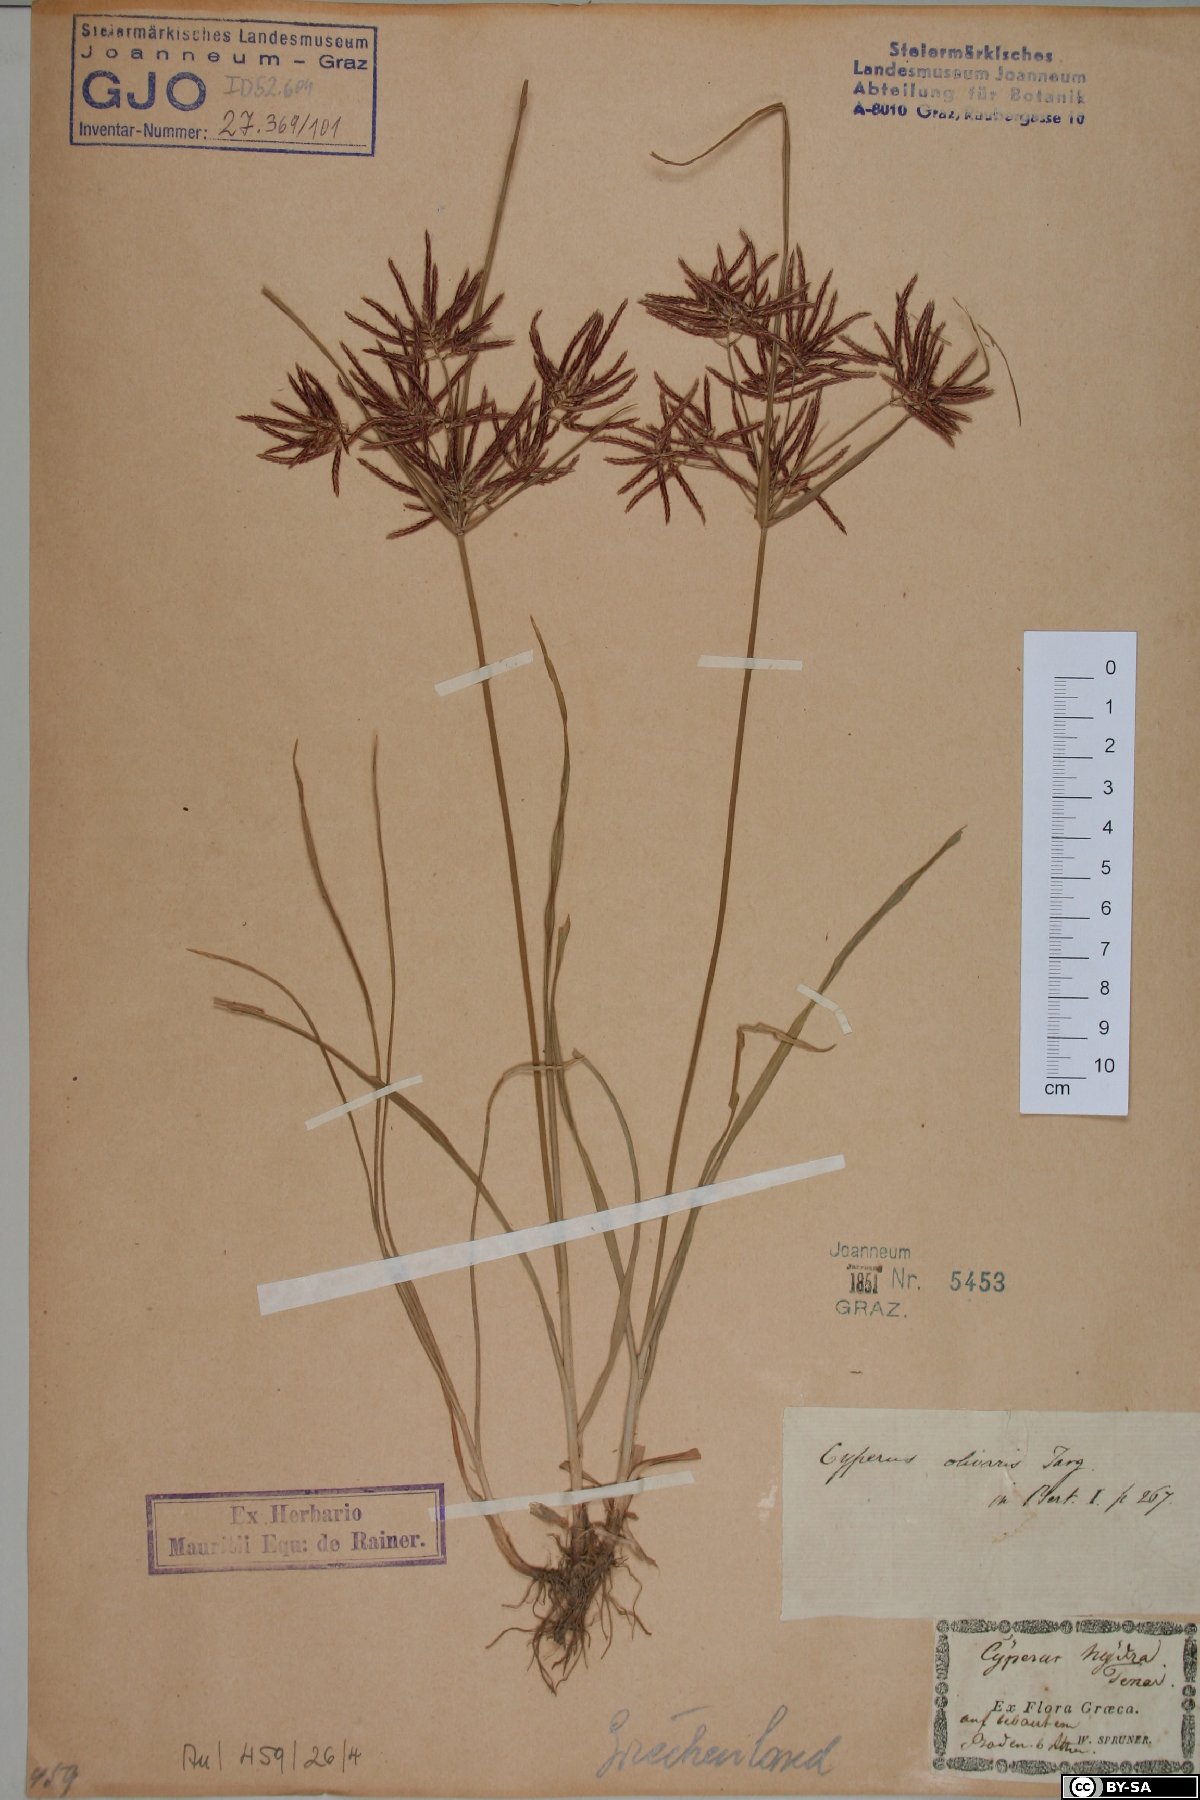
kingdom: Plantae
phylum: Tracheophyta
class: Liliopsida
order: Poales
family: Cyperaceae
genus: Cyperus
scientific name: Cyperus rotundus
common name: Nutgrass
